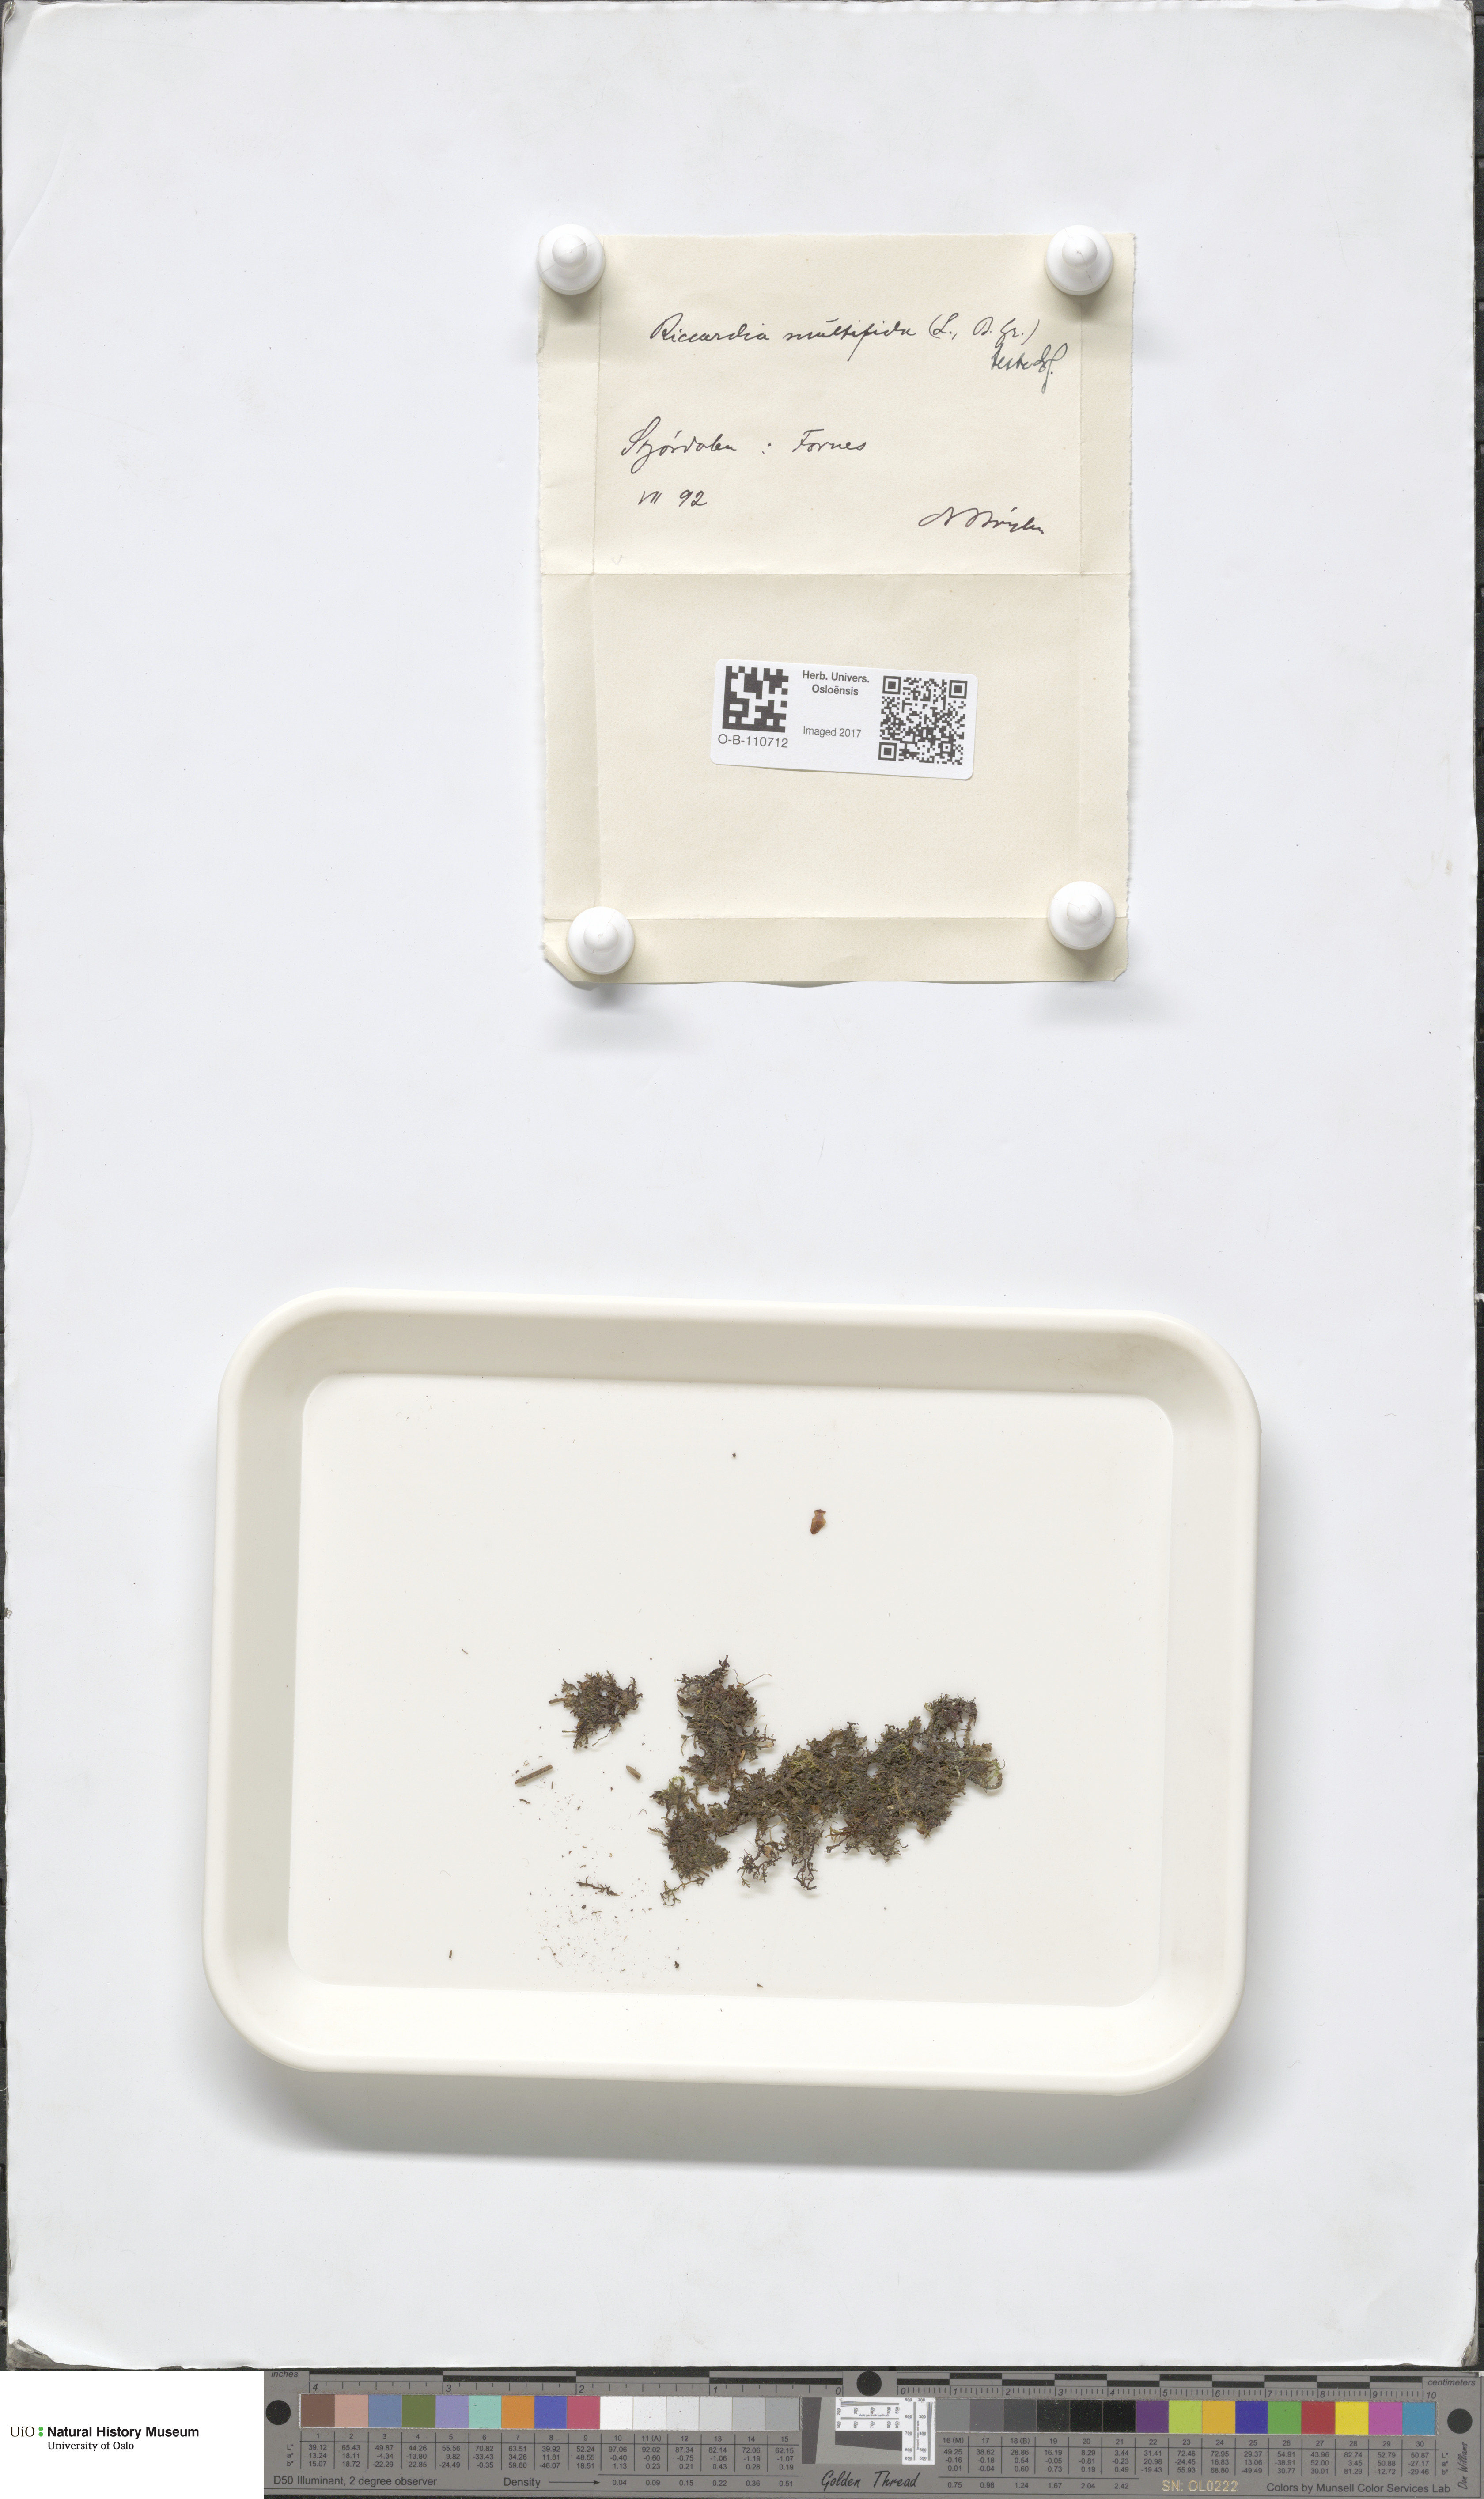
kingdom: Plantae
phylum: Marchantiophyta
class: Jungermanniopsida
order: Metzgeriales
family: Aneuraceae
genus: Riccardia
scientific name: Riccardia palmata
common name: Palmate germanderwort
